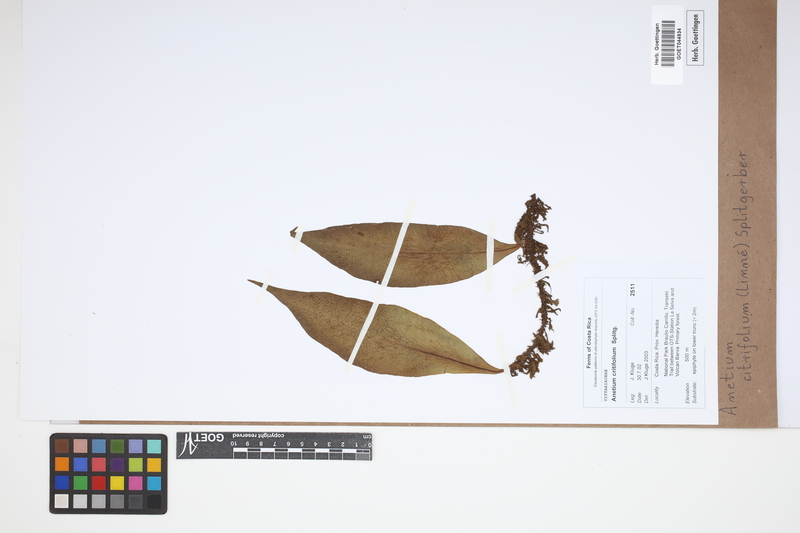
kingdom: Plantae
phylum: Tracheophyta
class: Polypodiopsida
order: Polypodiales
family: Pteridaceae
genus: Polytaenium
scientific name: Polytaenium citrifolium
